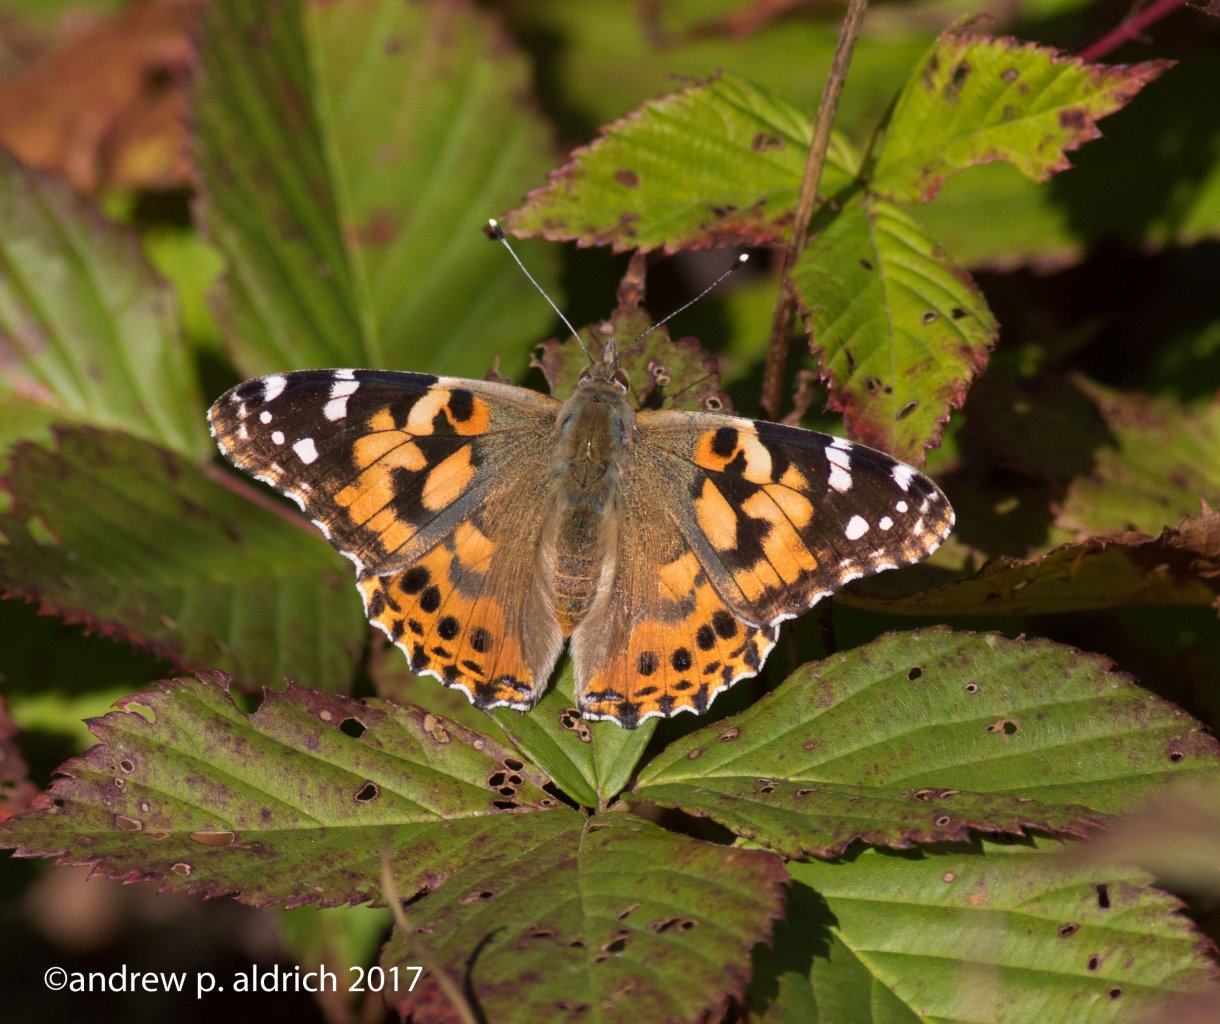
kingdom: Animalia
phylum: Arthropoda
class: Insecta
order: Lepidoptera
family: Nymphalidae
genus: Vanessa
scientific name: Vanessa cardui
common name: Painted Lady
